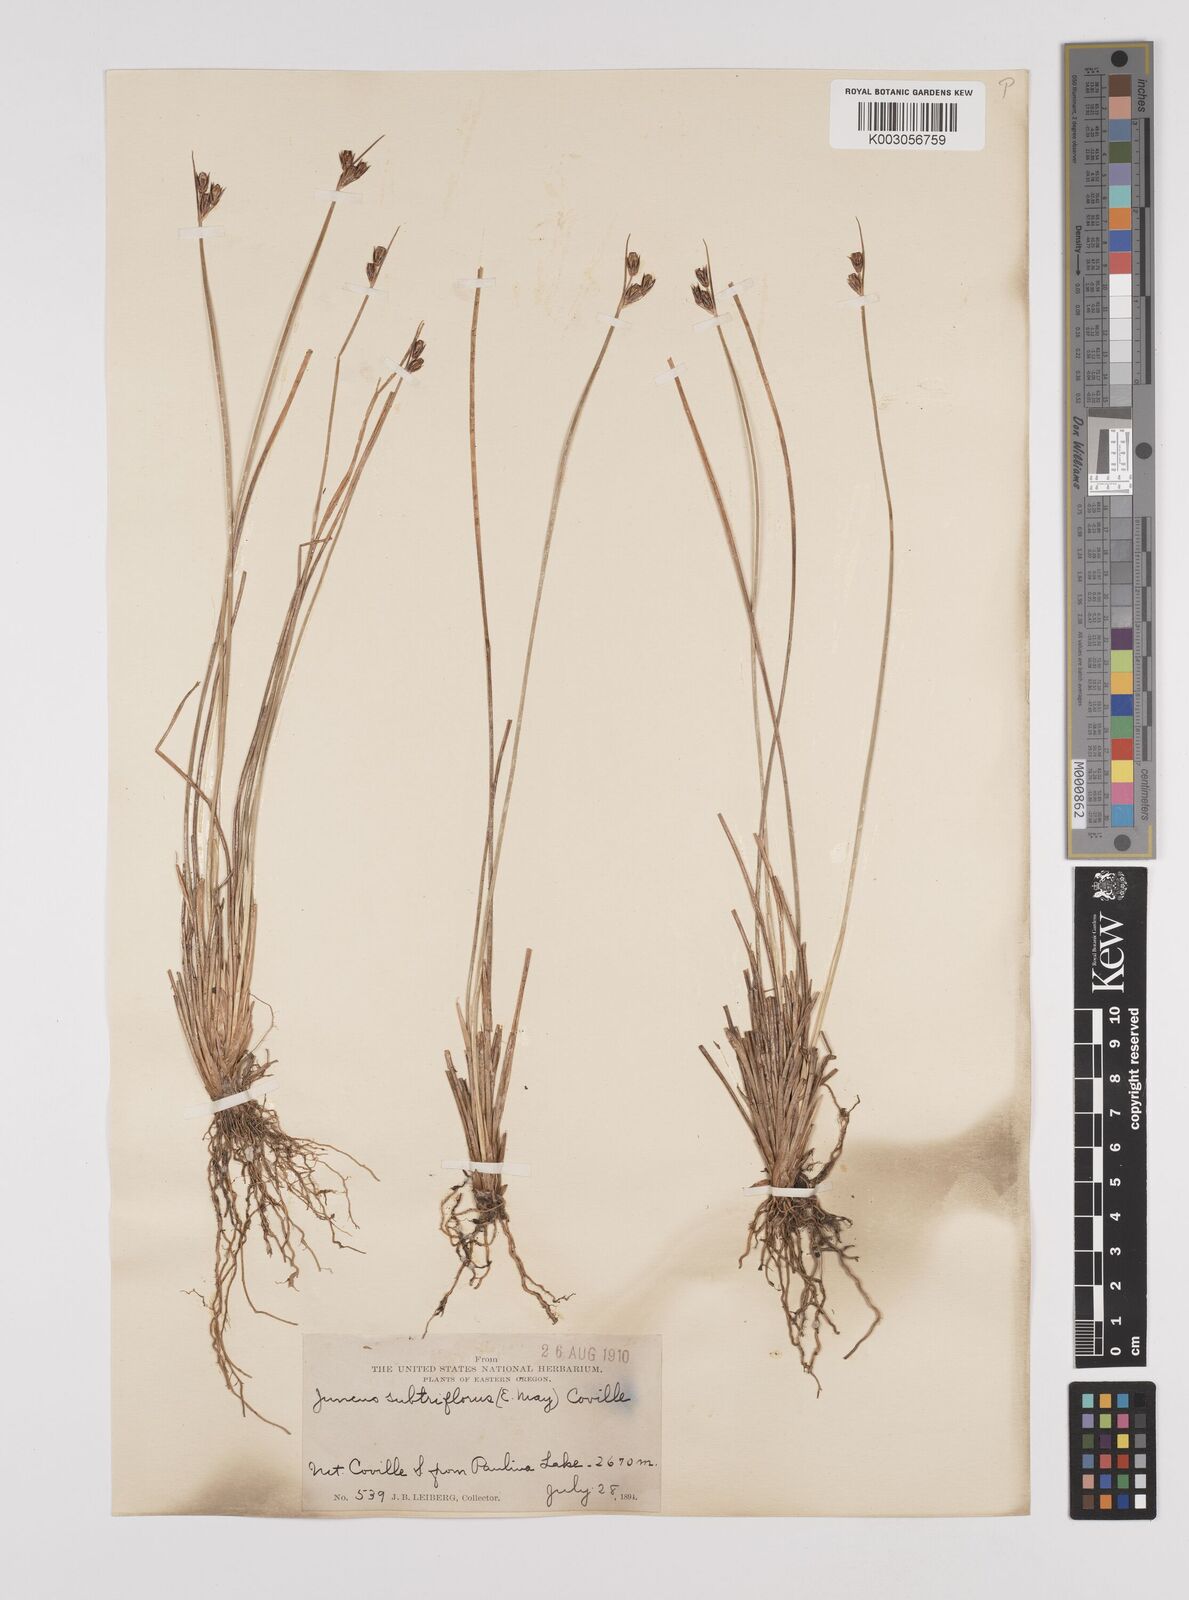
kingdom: Plantae
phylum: Tracheophyta
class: Liliopsida
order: Poales
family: Juncaceae
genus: Juncus
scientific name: Juncus drummondii
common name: Drummond's rush
